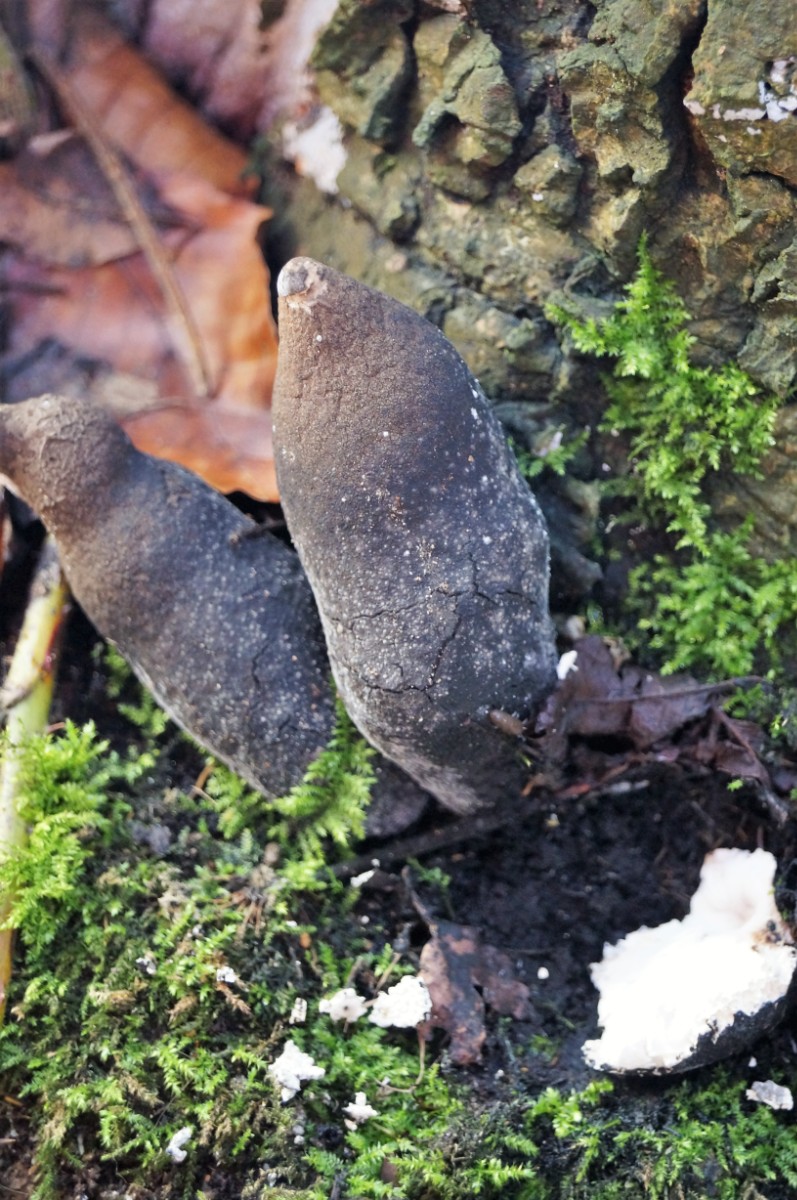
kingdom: Fungi
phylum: Ascomycota
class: Sordariomycetes
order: Xylariales
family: Xylariaceae
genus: Xylaria
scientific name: Xylaria polymorpha
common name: kølle-stødsvamp
